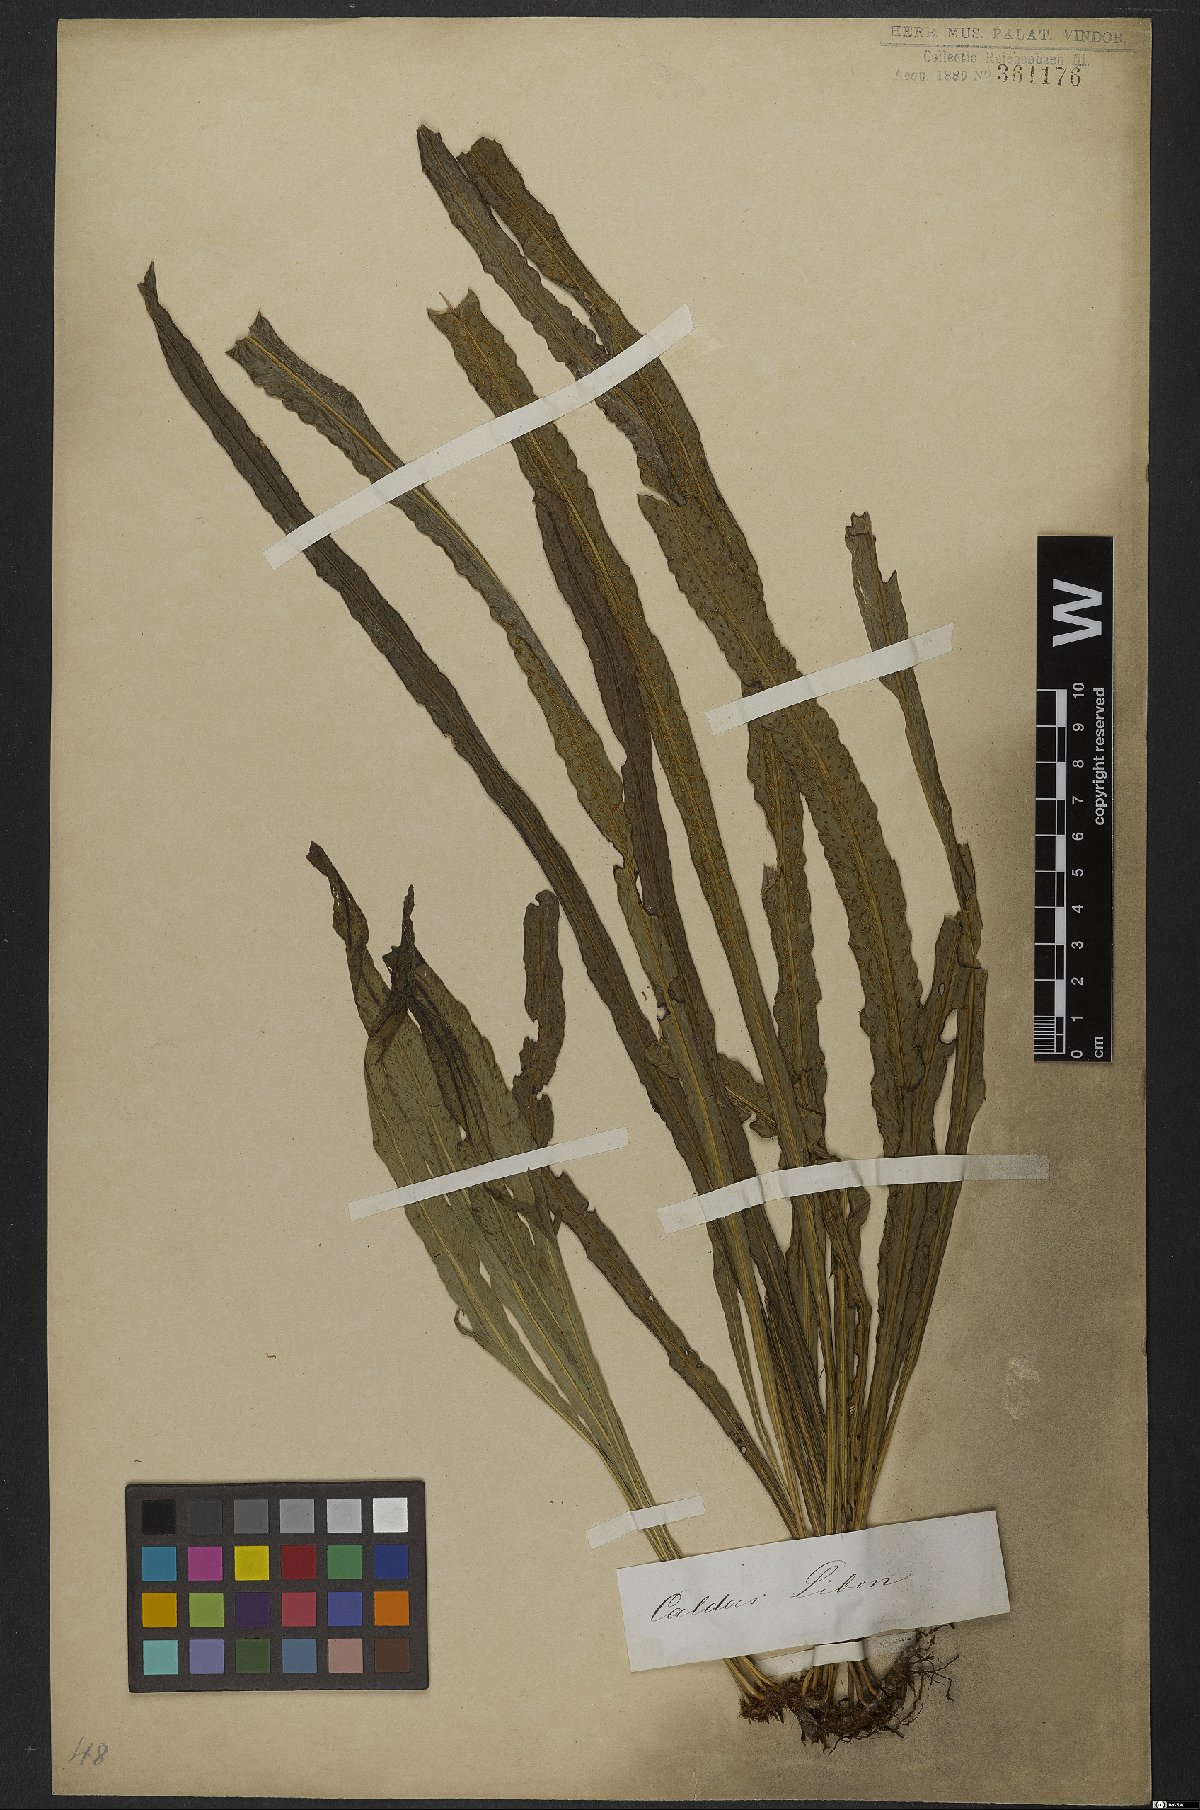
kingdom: Plantae
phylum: Tracheophyta
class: Polypodiopsida
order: Polypodiales
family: Polypodiaceae
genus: Campyloneurum
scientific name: Campyloneurum nitidum
